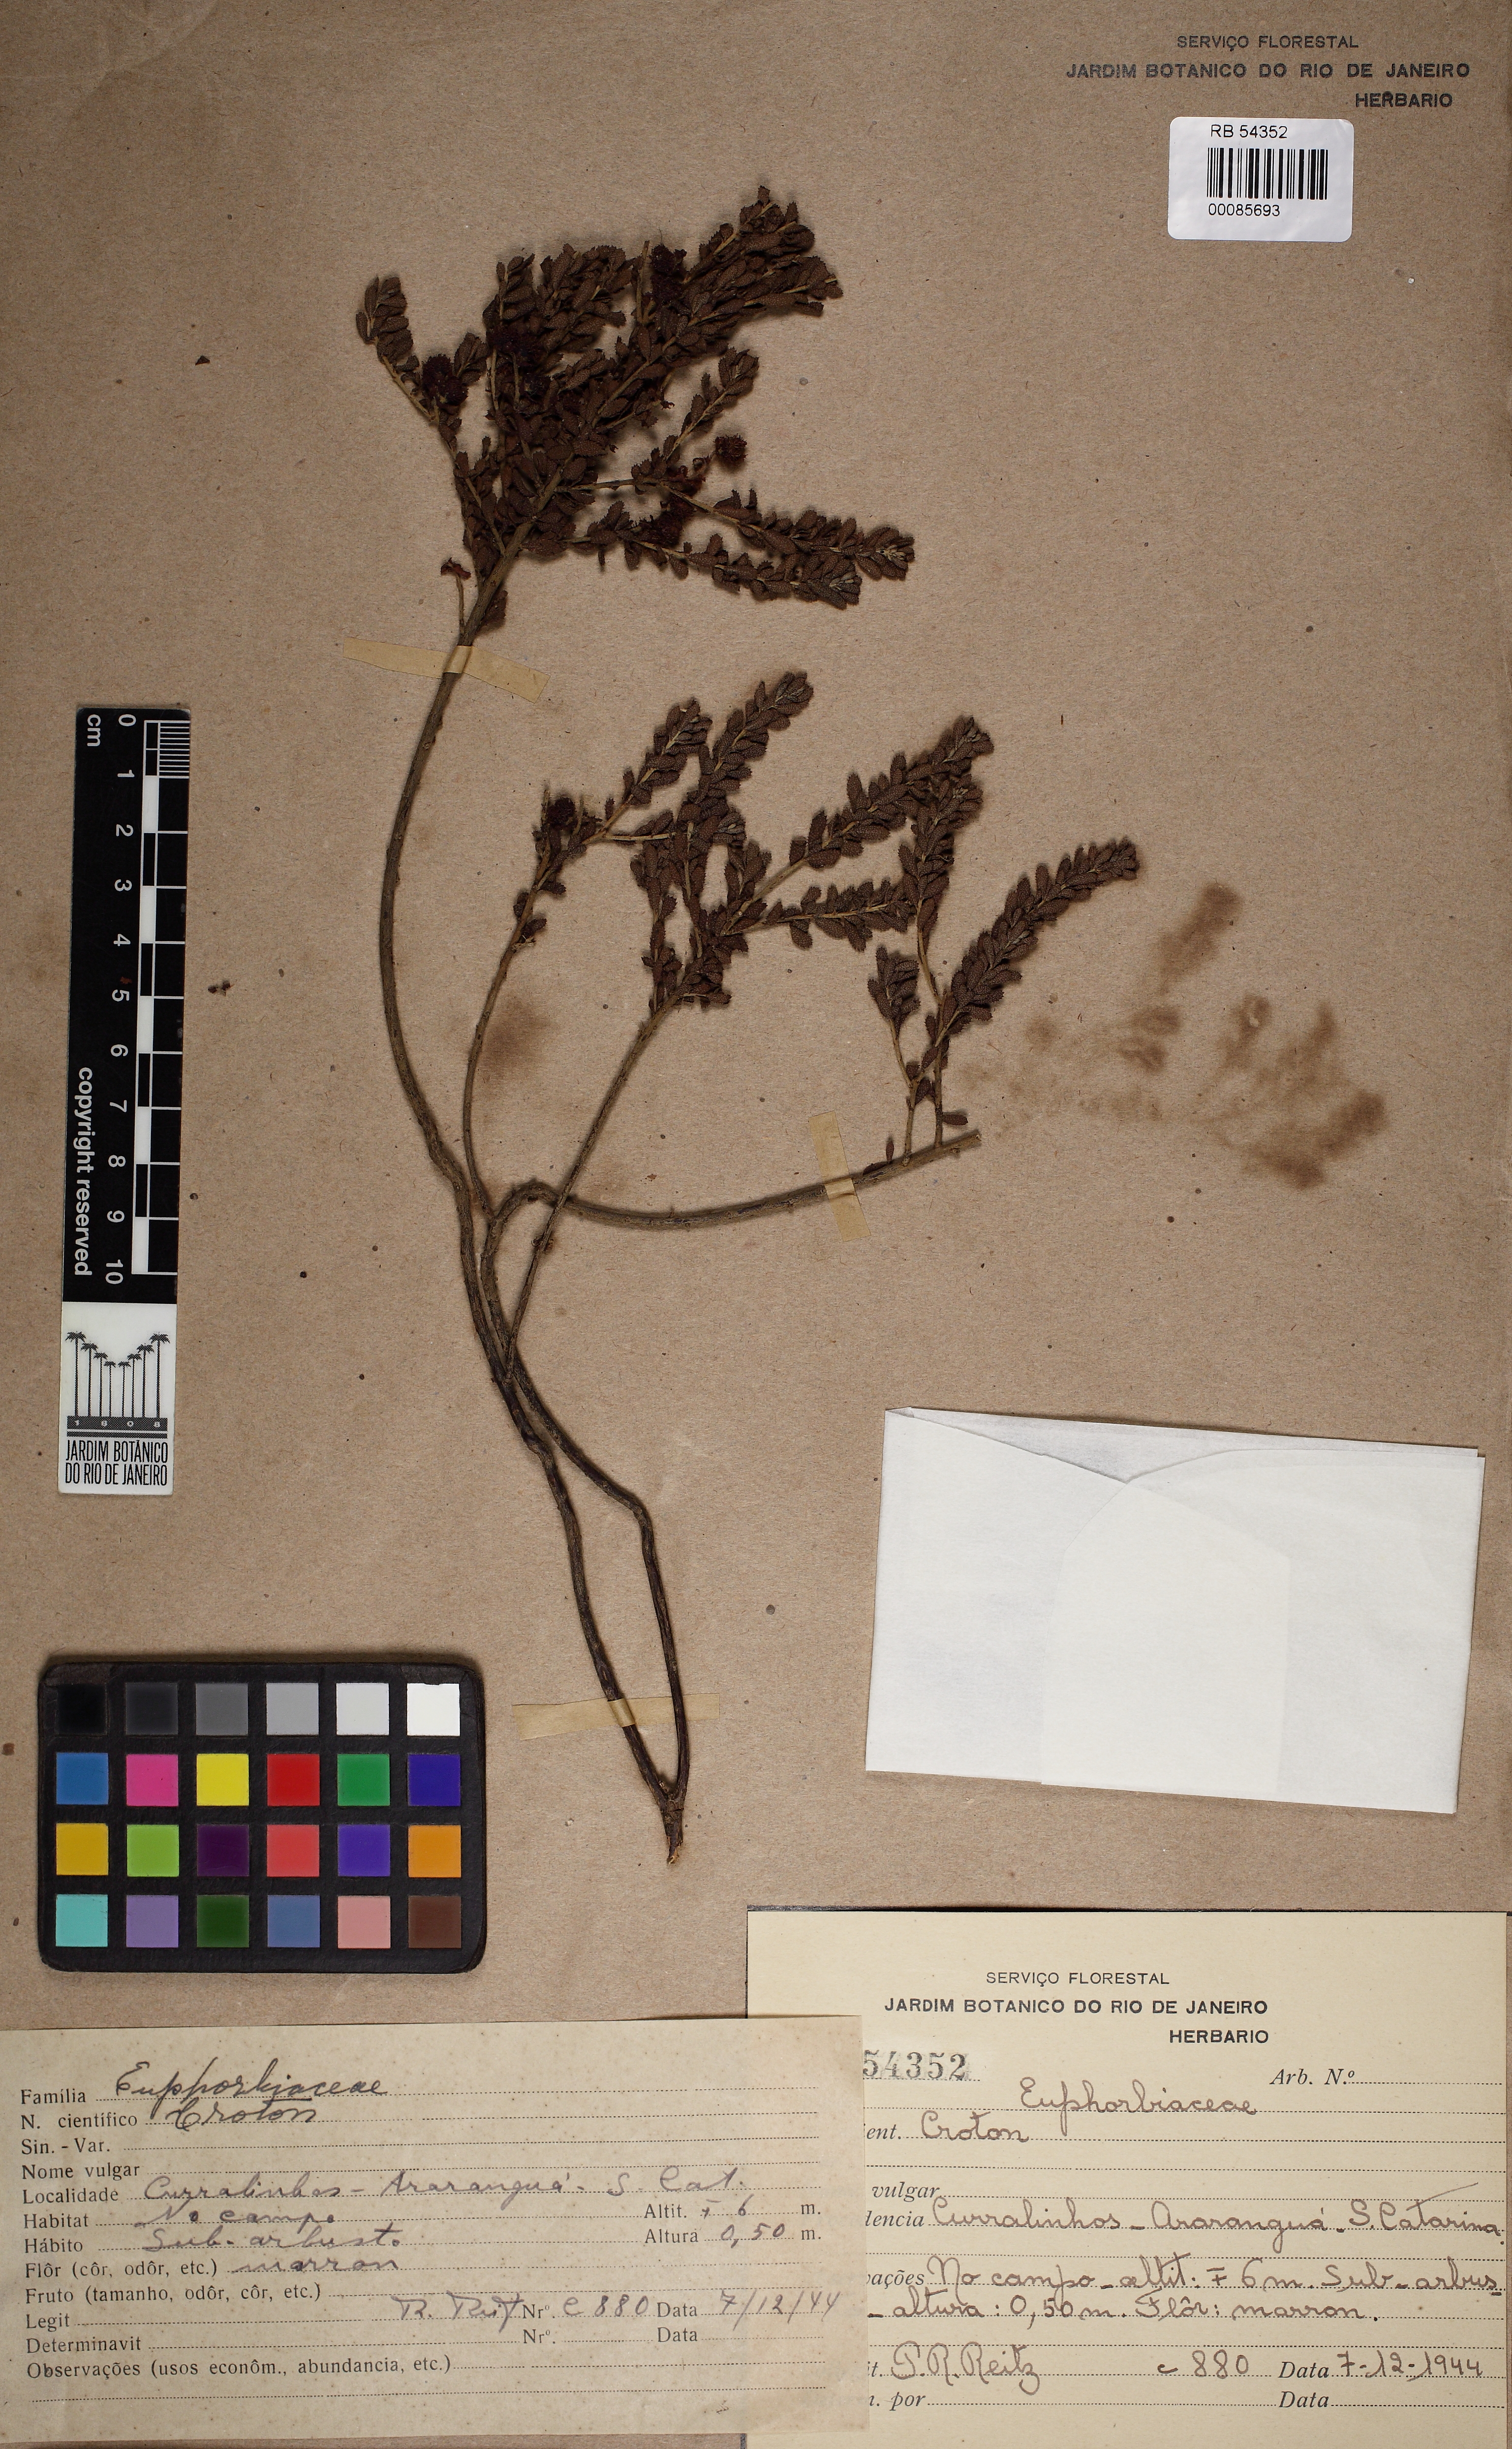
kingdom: Plantae
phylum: Tracheophyta
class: Magnoliopsida
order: Malpighiales
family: Euphorbiaceae
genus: Croton
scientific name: Croton lombardianus
